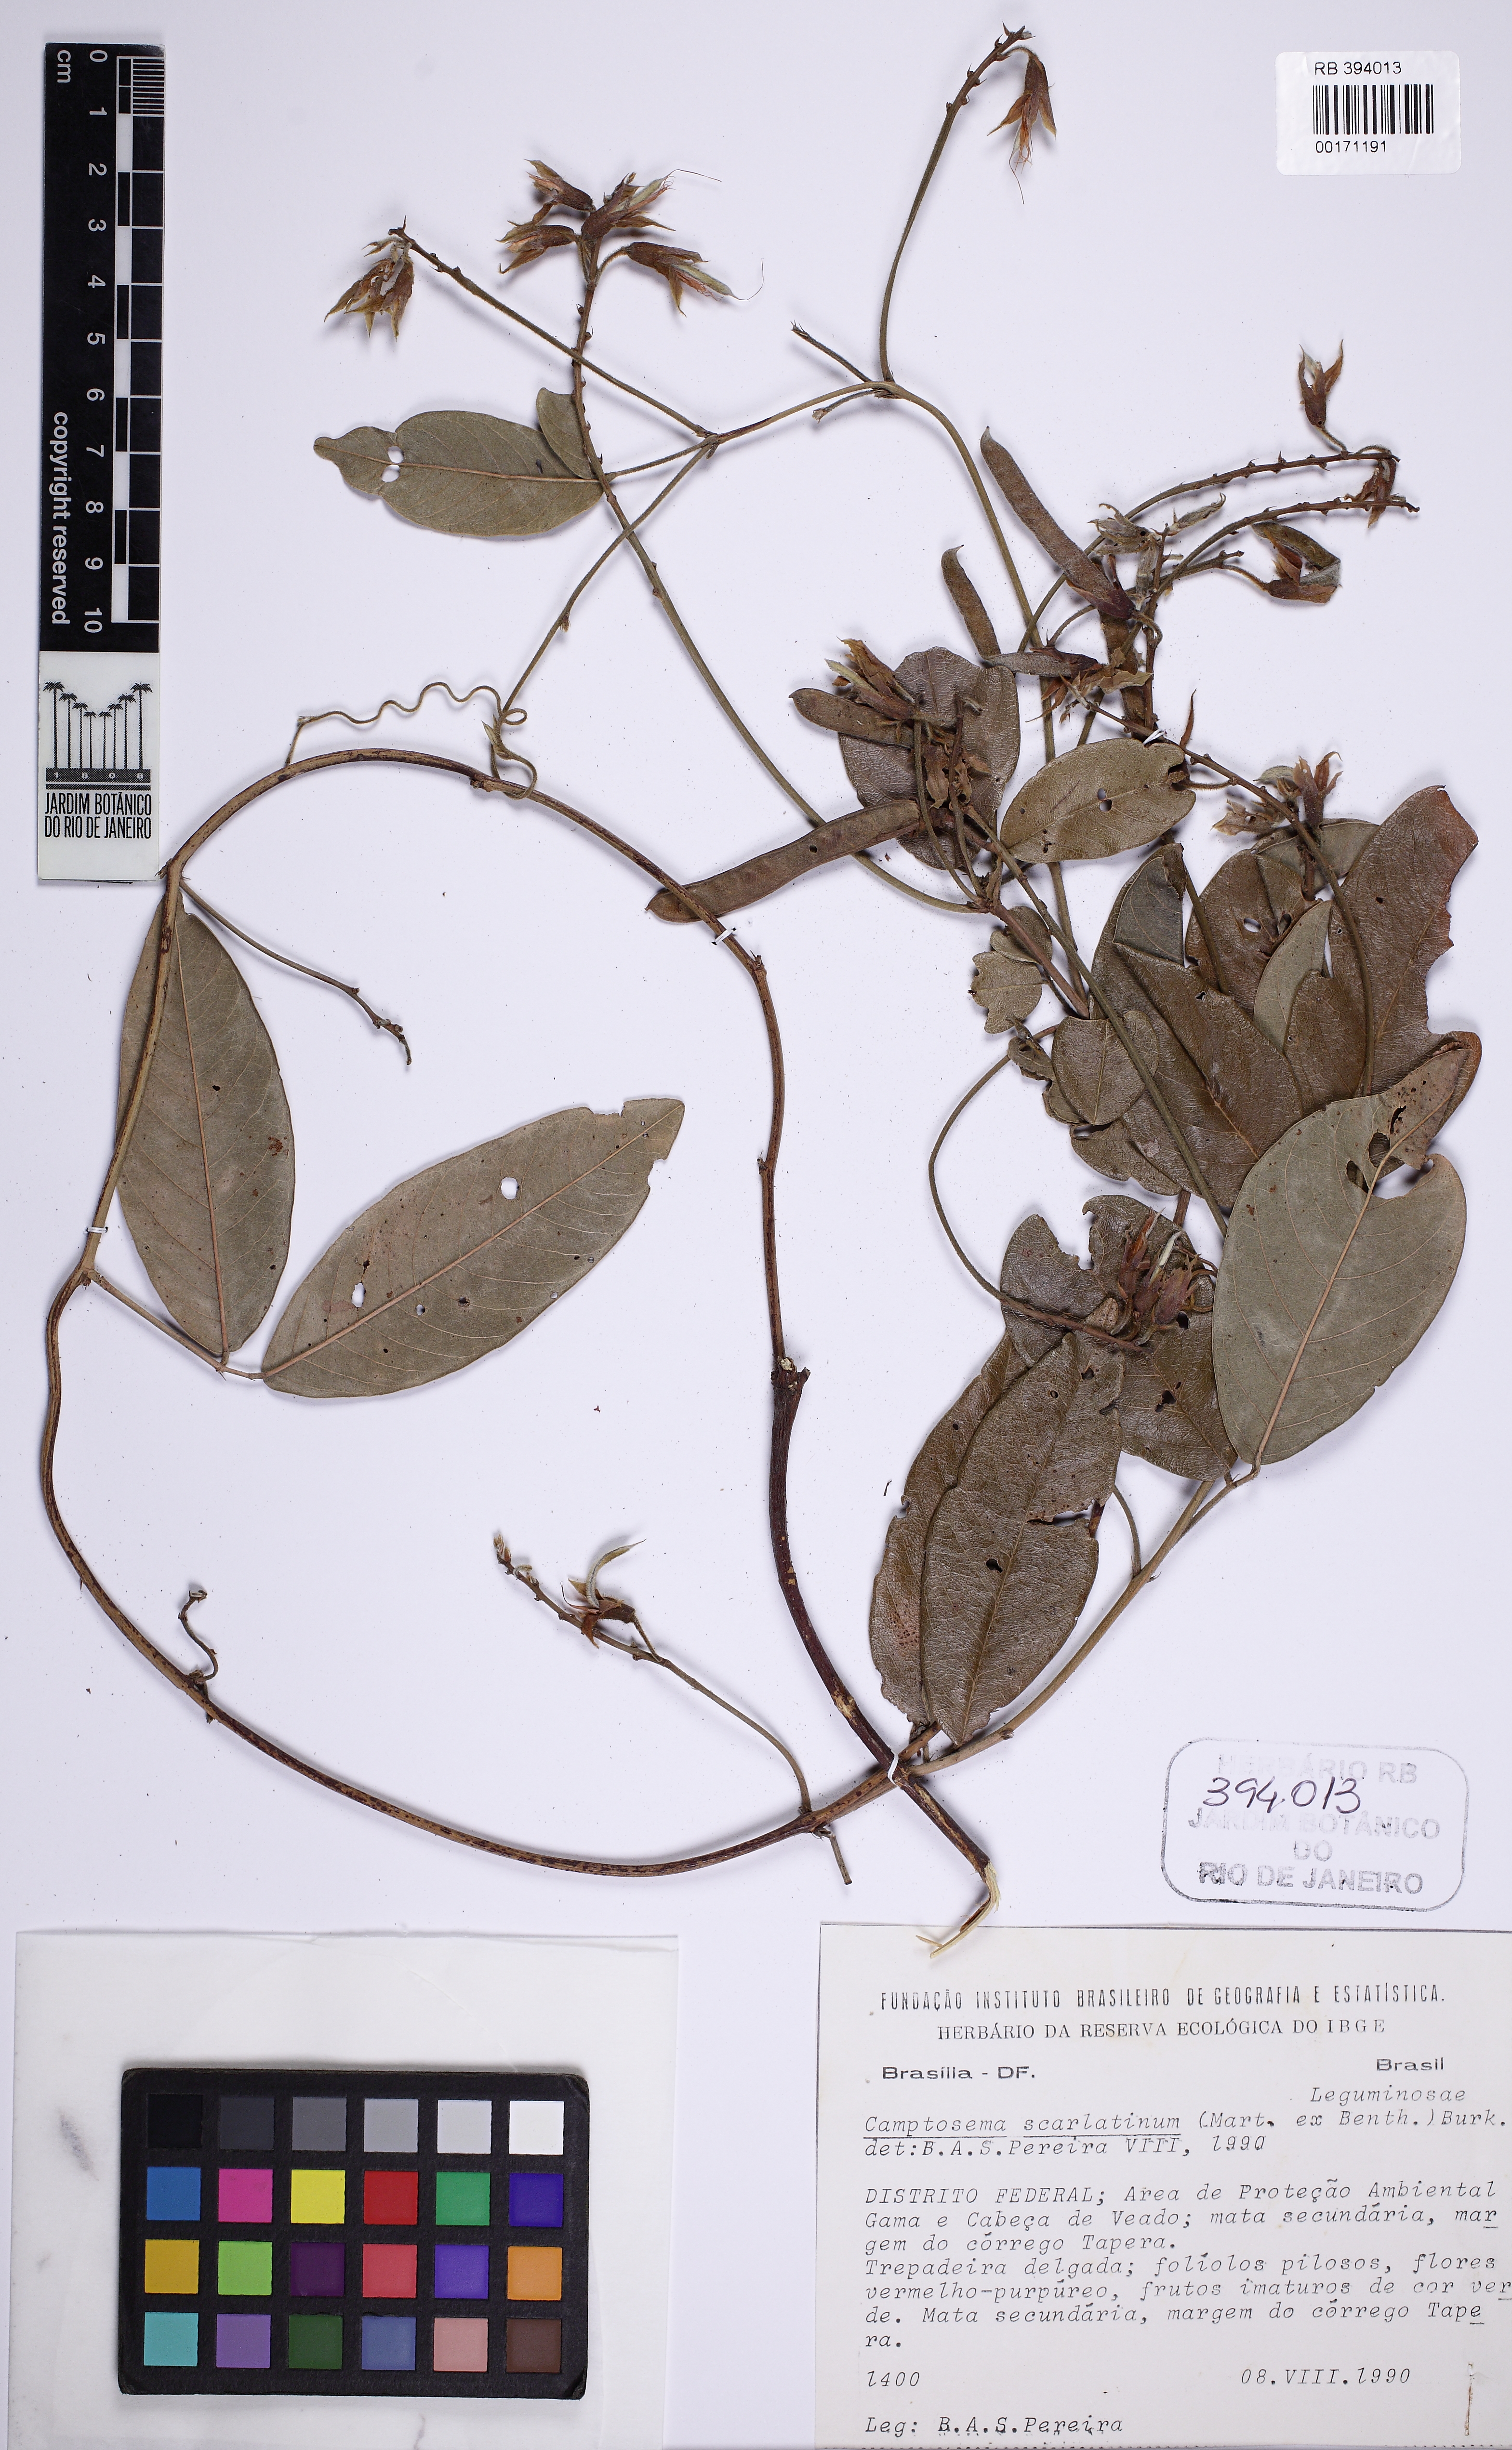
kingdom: Plantae
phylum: Tracheophyta
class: Magnoliopsida
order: Fabales
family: Fabaceae
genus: Betencourtia
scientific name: Betencourtia scarlatina
